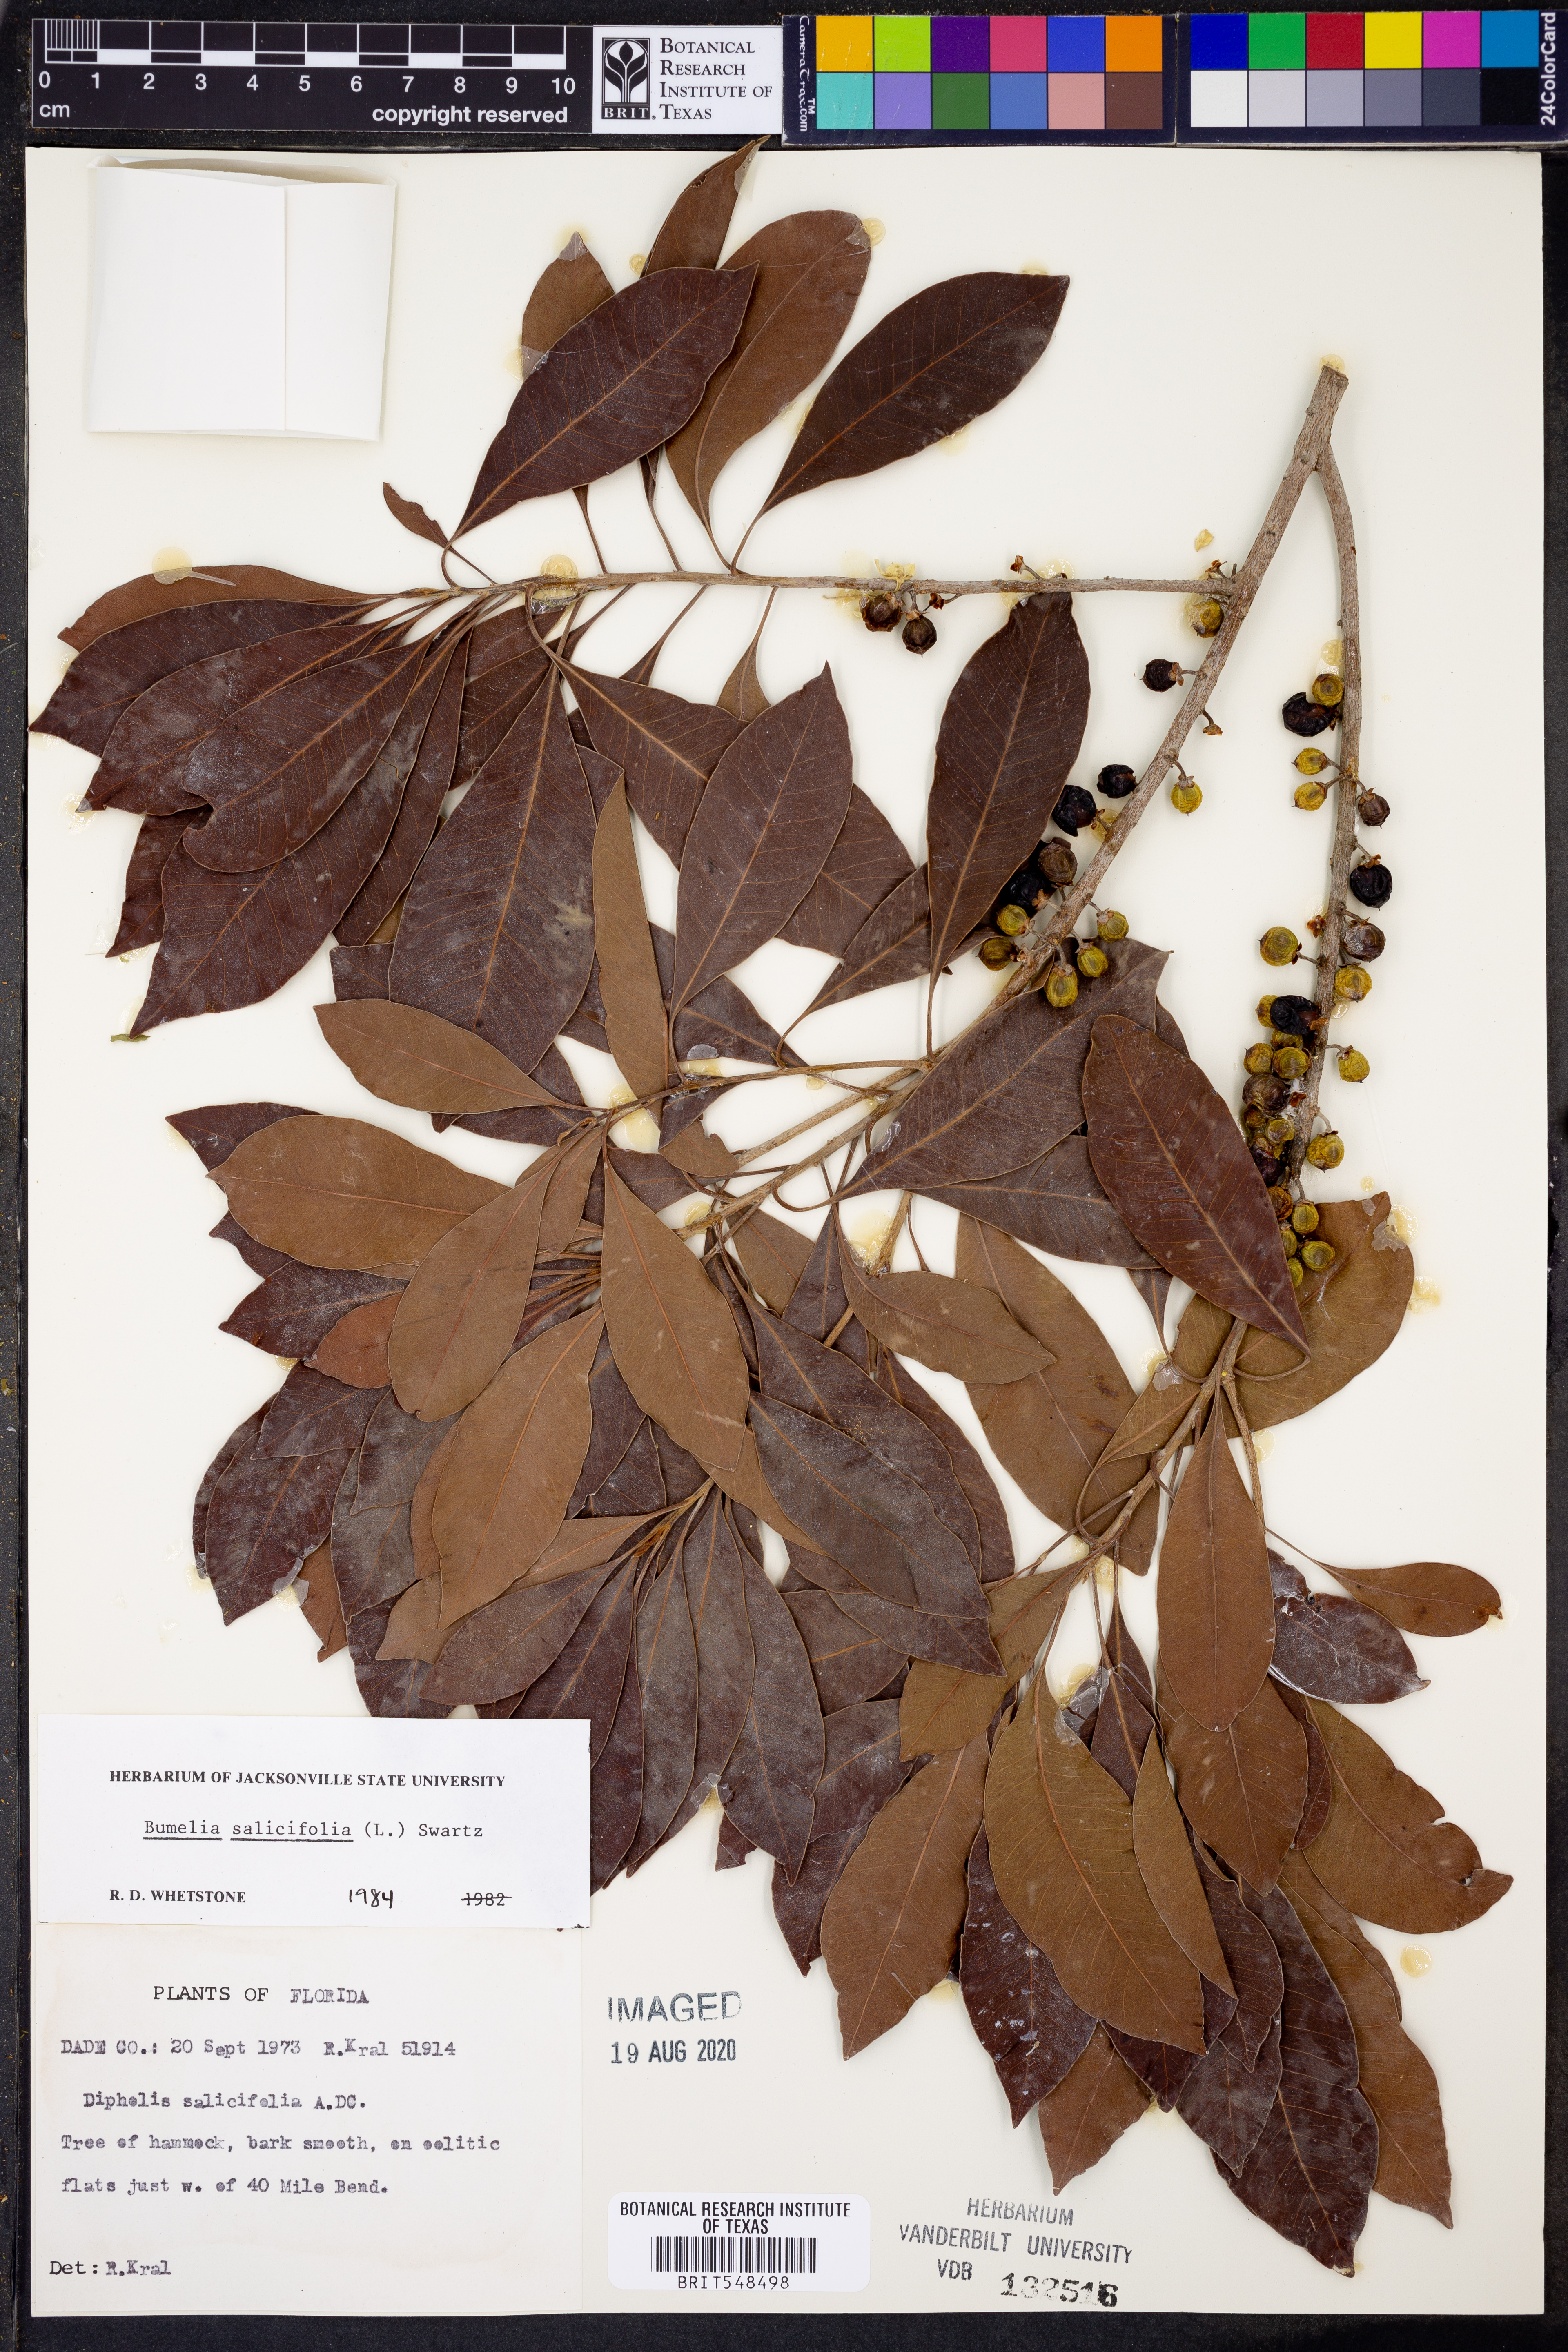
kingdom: Plantae
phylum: Tracheophyta
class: Magnoliopsida
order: Ericales
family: Sapotaceae
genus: Sideroxylon
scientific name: Sideroxylon salicifolium
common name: White bully
